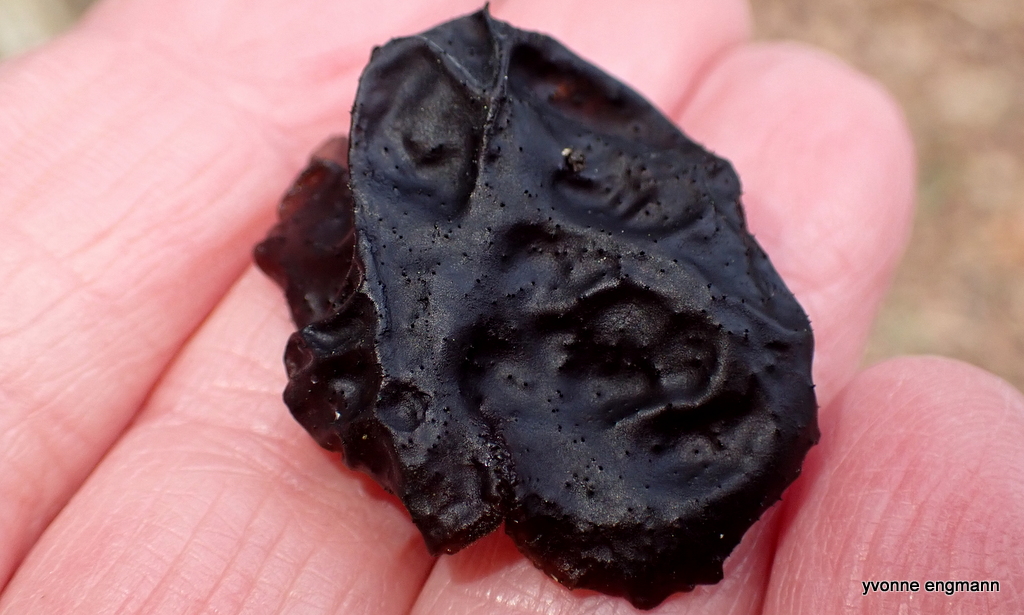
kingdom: Fungi
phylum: Basidiomycota
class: Agaricomycetes
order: Auriculariales
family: Auriculariaceae
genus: Exidia
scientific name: Exidia glandulosa
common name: ege-bævretop
